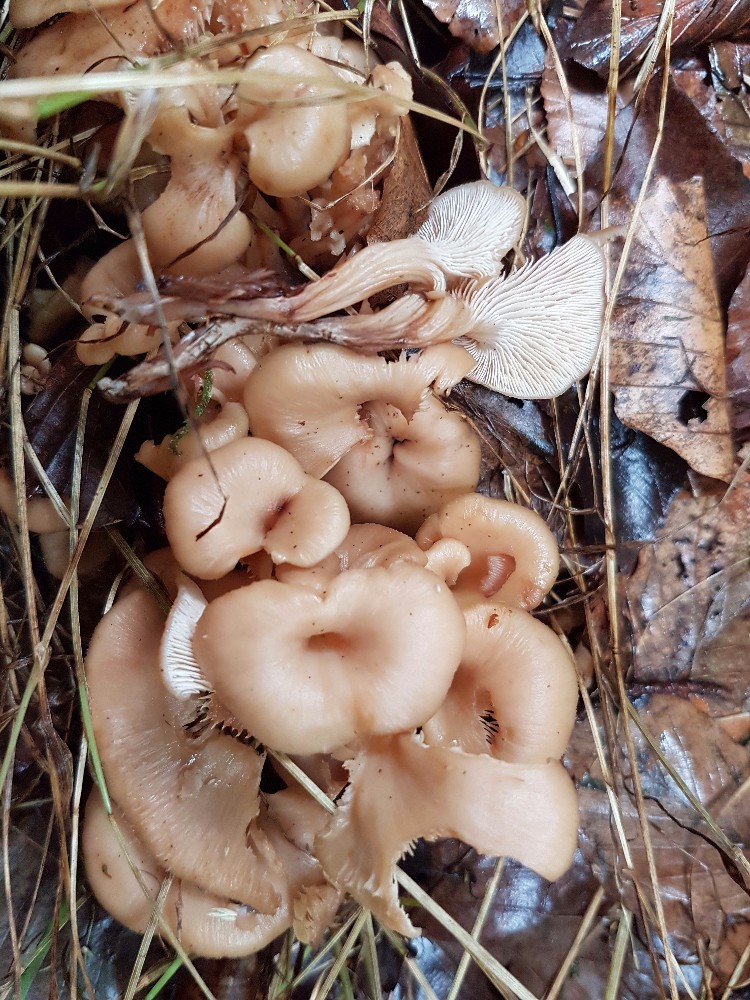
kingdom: Fungi
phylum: Basidiomycota
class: Agaricomycetes
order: Russulales
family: Auriscalpiaceae
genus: Lentinellus
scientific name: Lentinellus cochleatus
